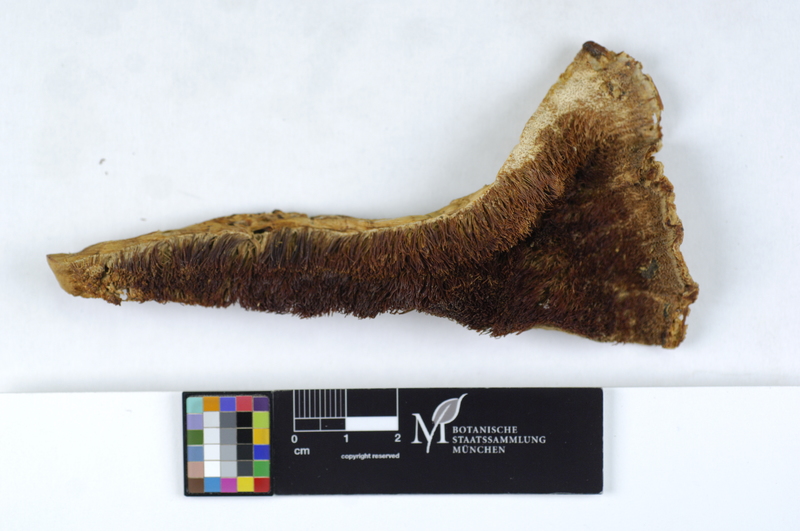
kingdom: Plantae
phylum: Tracheophyta
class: Magnoliopsida
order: Fagales
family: Fagaceae
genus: Quercus
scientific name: Quercus
